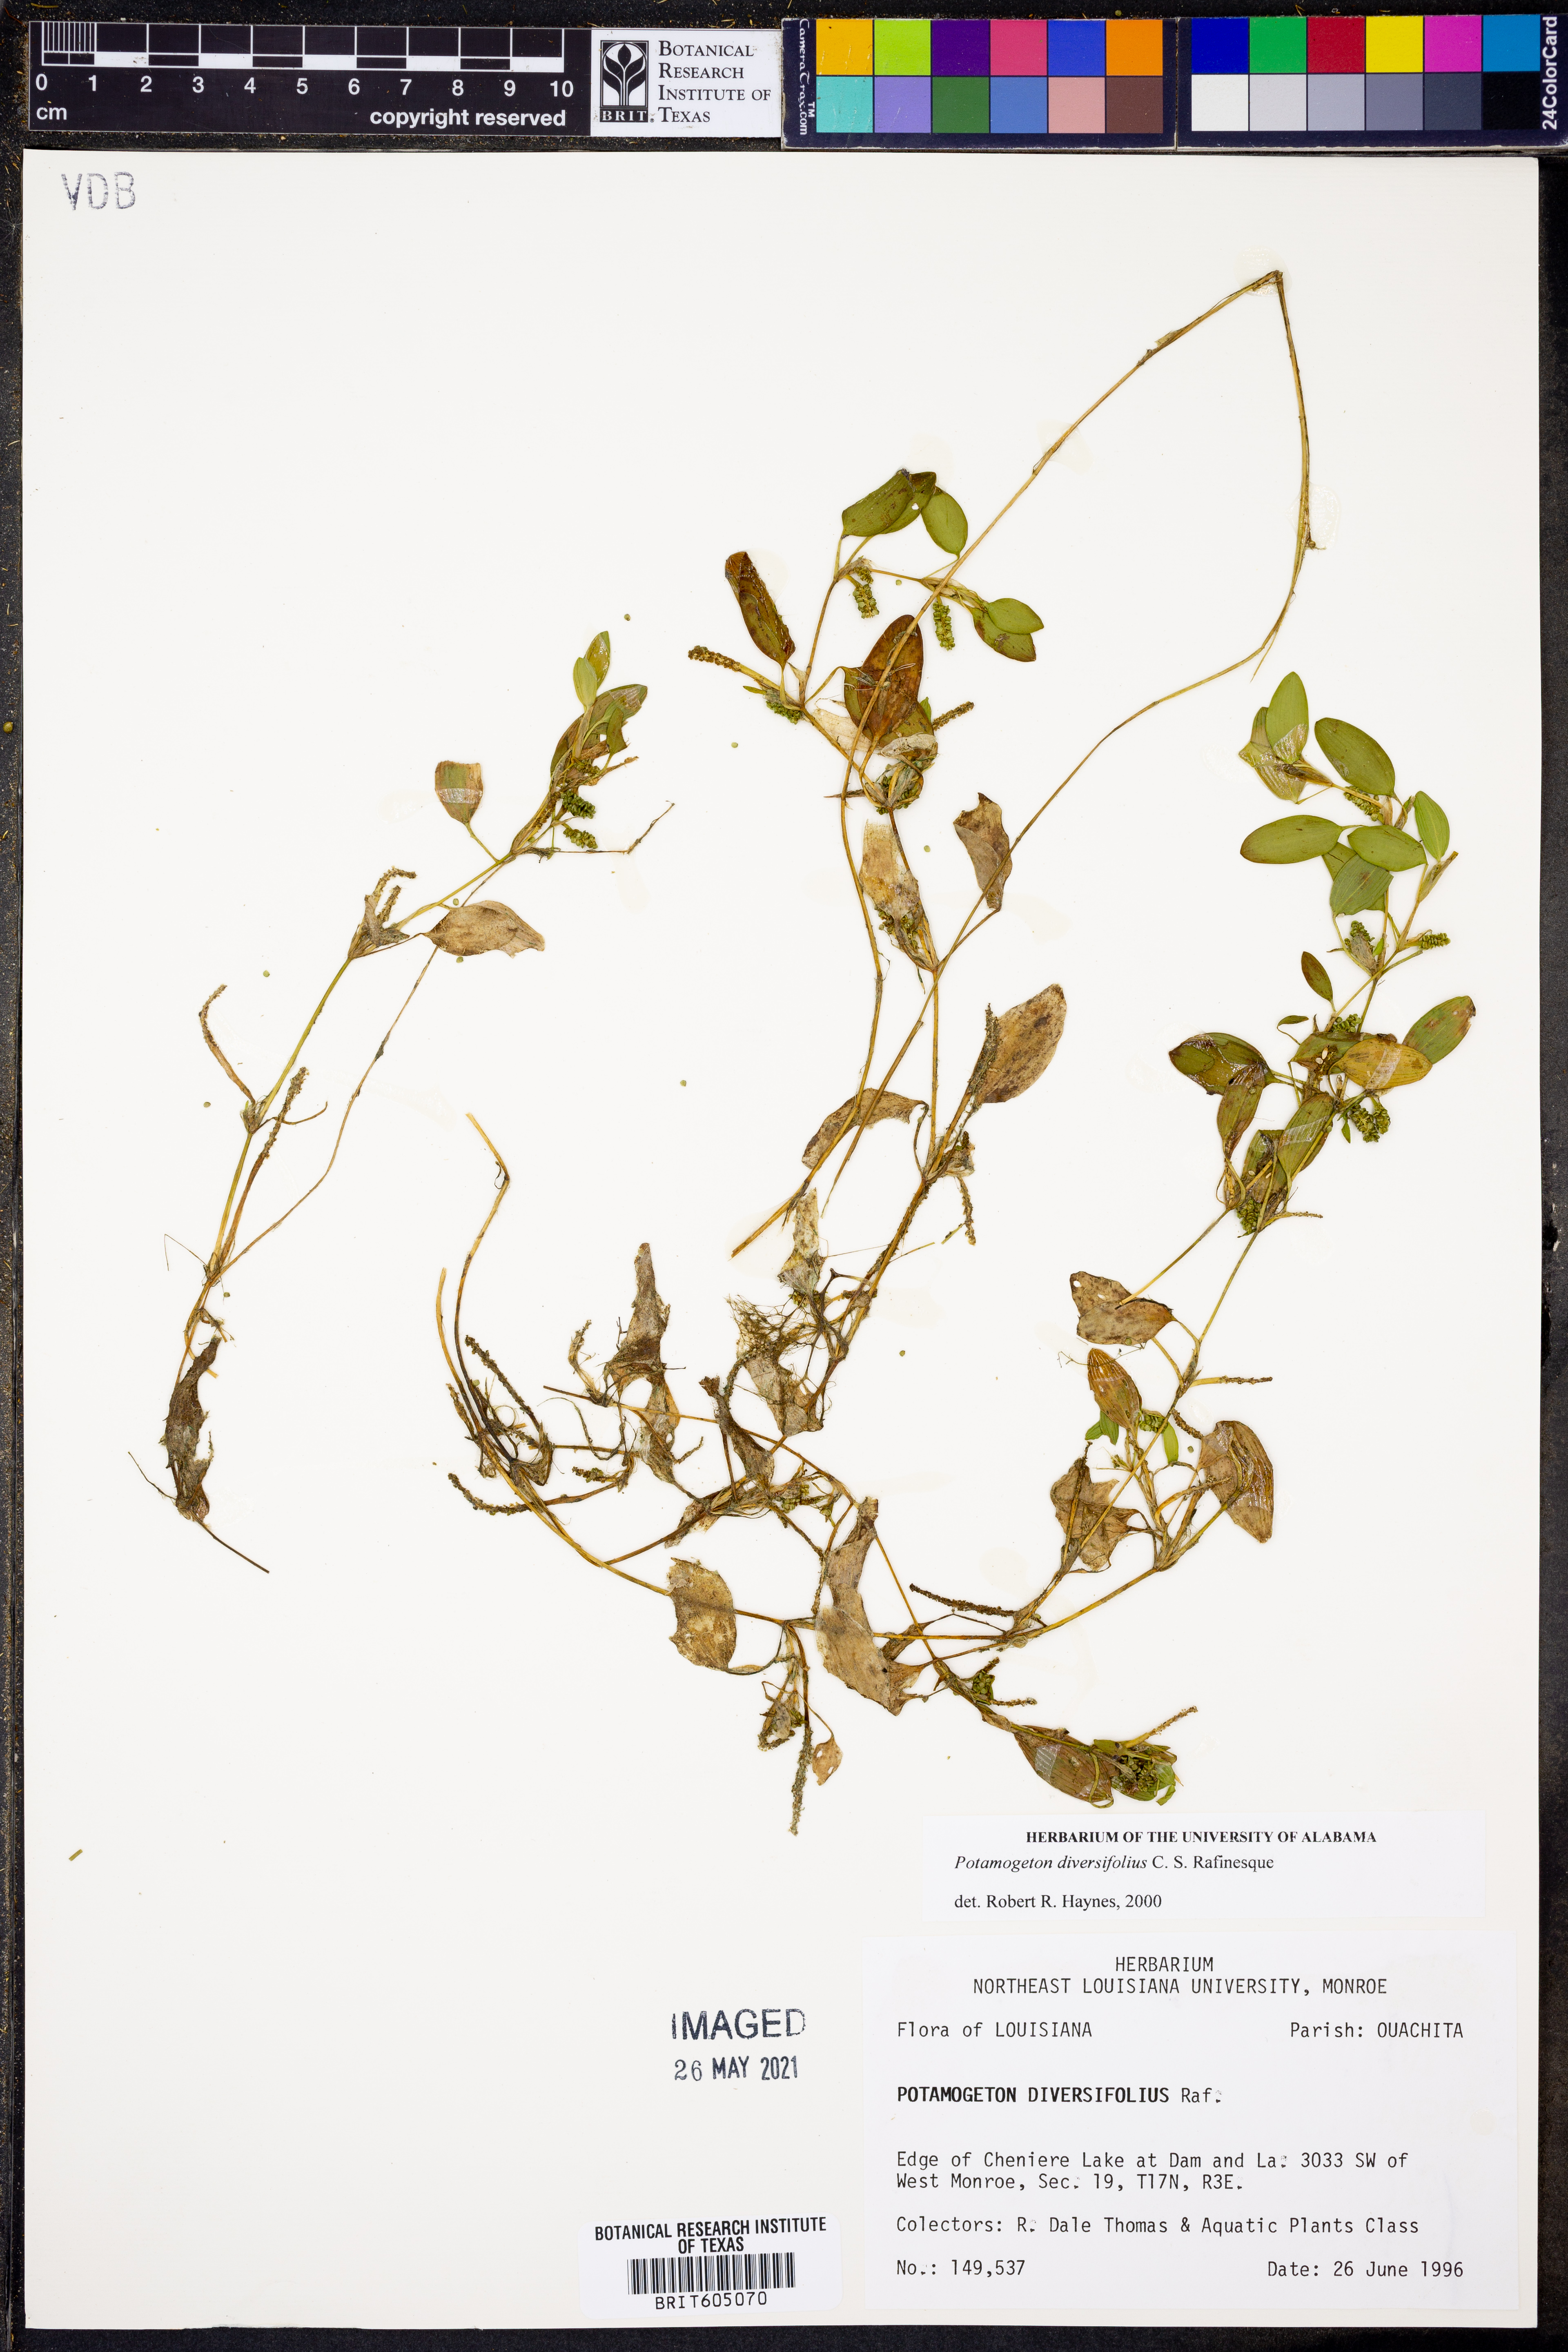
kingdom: Plantae
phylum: Tracheophyta
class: Liliopsida
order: Alismatales
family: Potamogetonaceae
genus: Potamogeton
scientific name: Potamogeton diversifolius
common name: Water-thread pondweed
